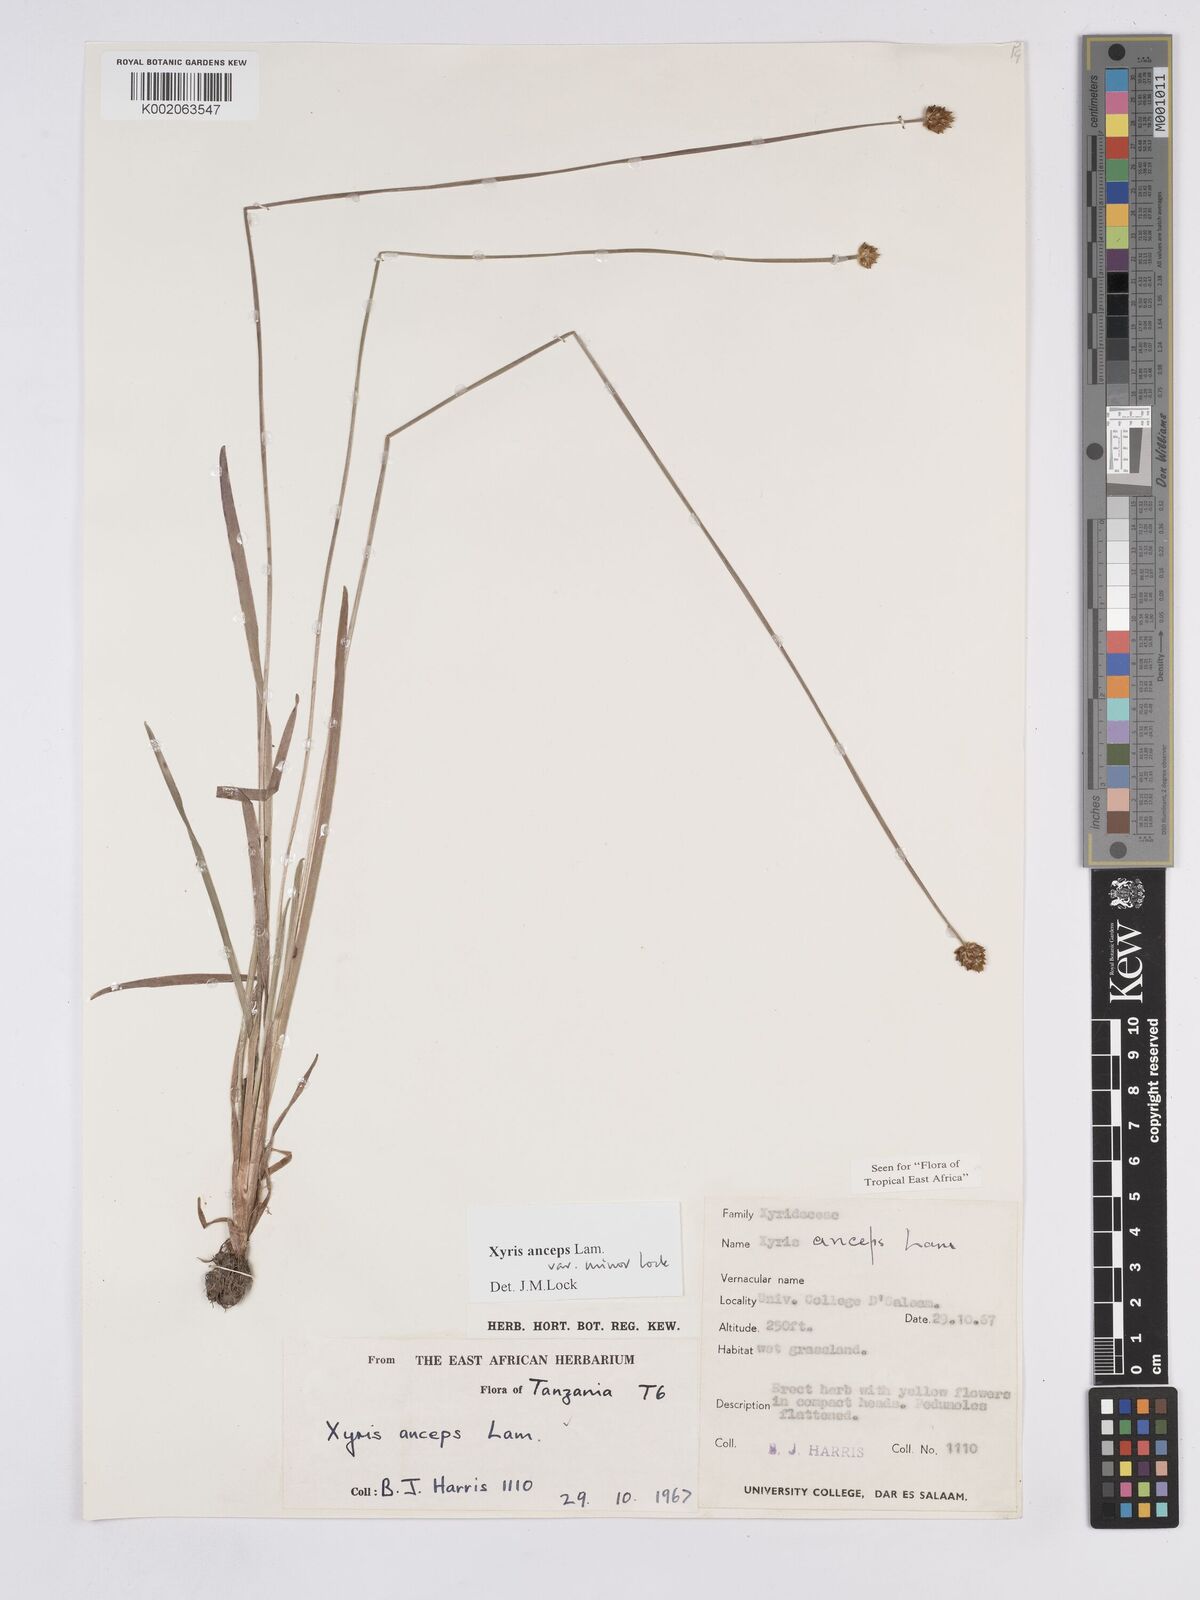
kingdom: Plantae
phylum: Tracheophyta
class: Liliopsida
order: Poales
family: Xyridaceae
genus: Xyris
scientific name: Xyris anceps
